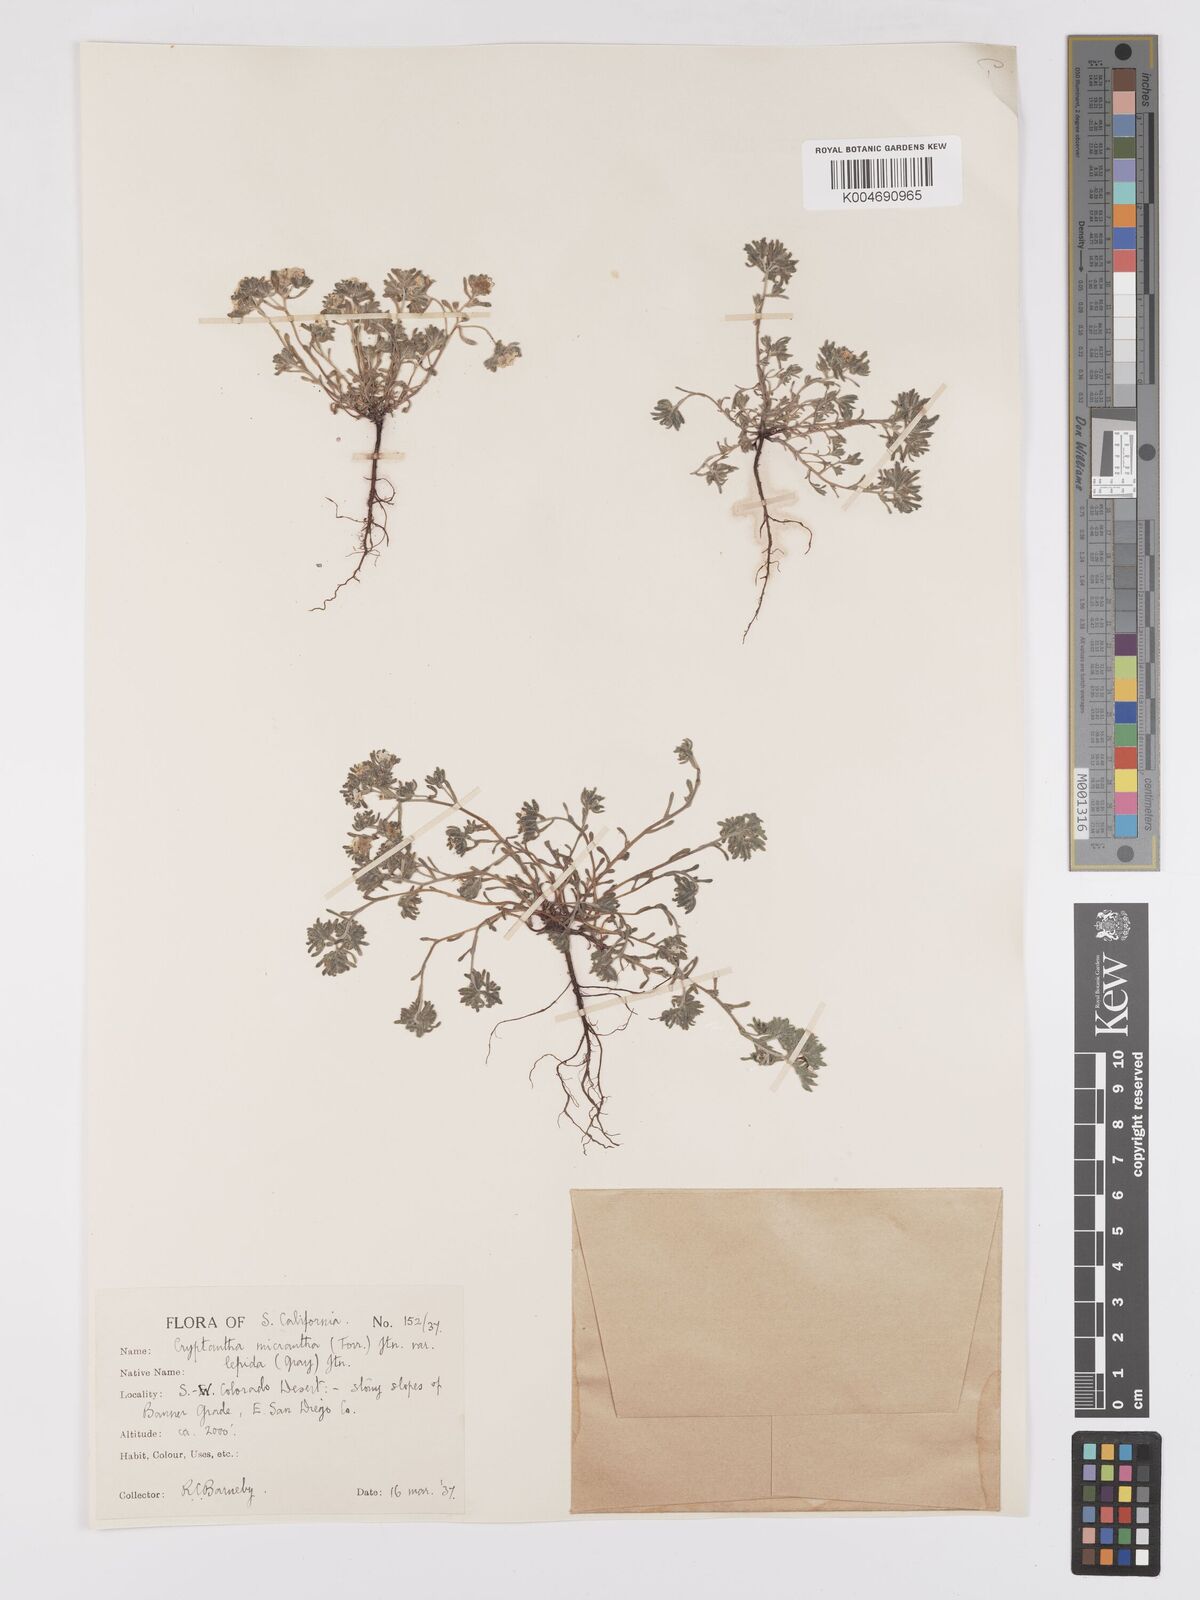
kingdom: Plantae
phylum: Tracheophyta
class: Magnoliopsida
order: Boraginales
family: Boraginaceae
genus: Eremocarya
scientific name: Eremocarya lepida
